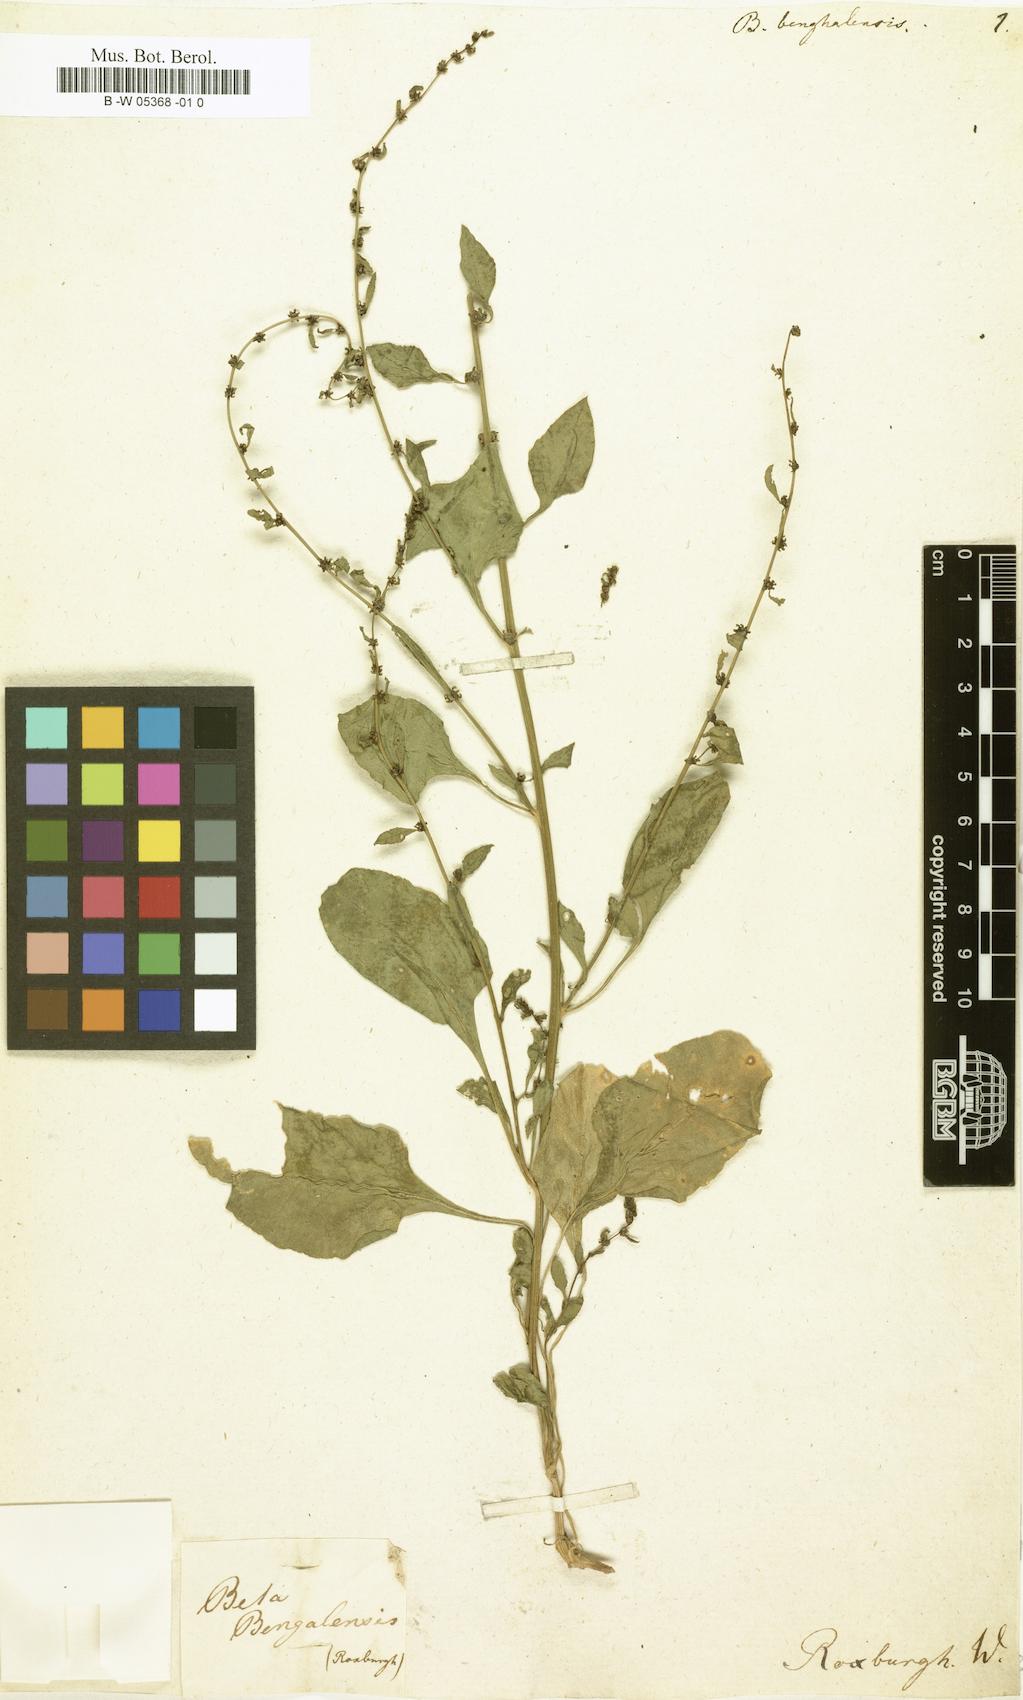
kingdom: Plantae
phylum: Tracheophyta
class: Magnoliopsida
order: Caryophyllales
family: Amaranthaceae
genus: Beta
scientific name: Beta vulgaris
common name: Beet
